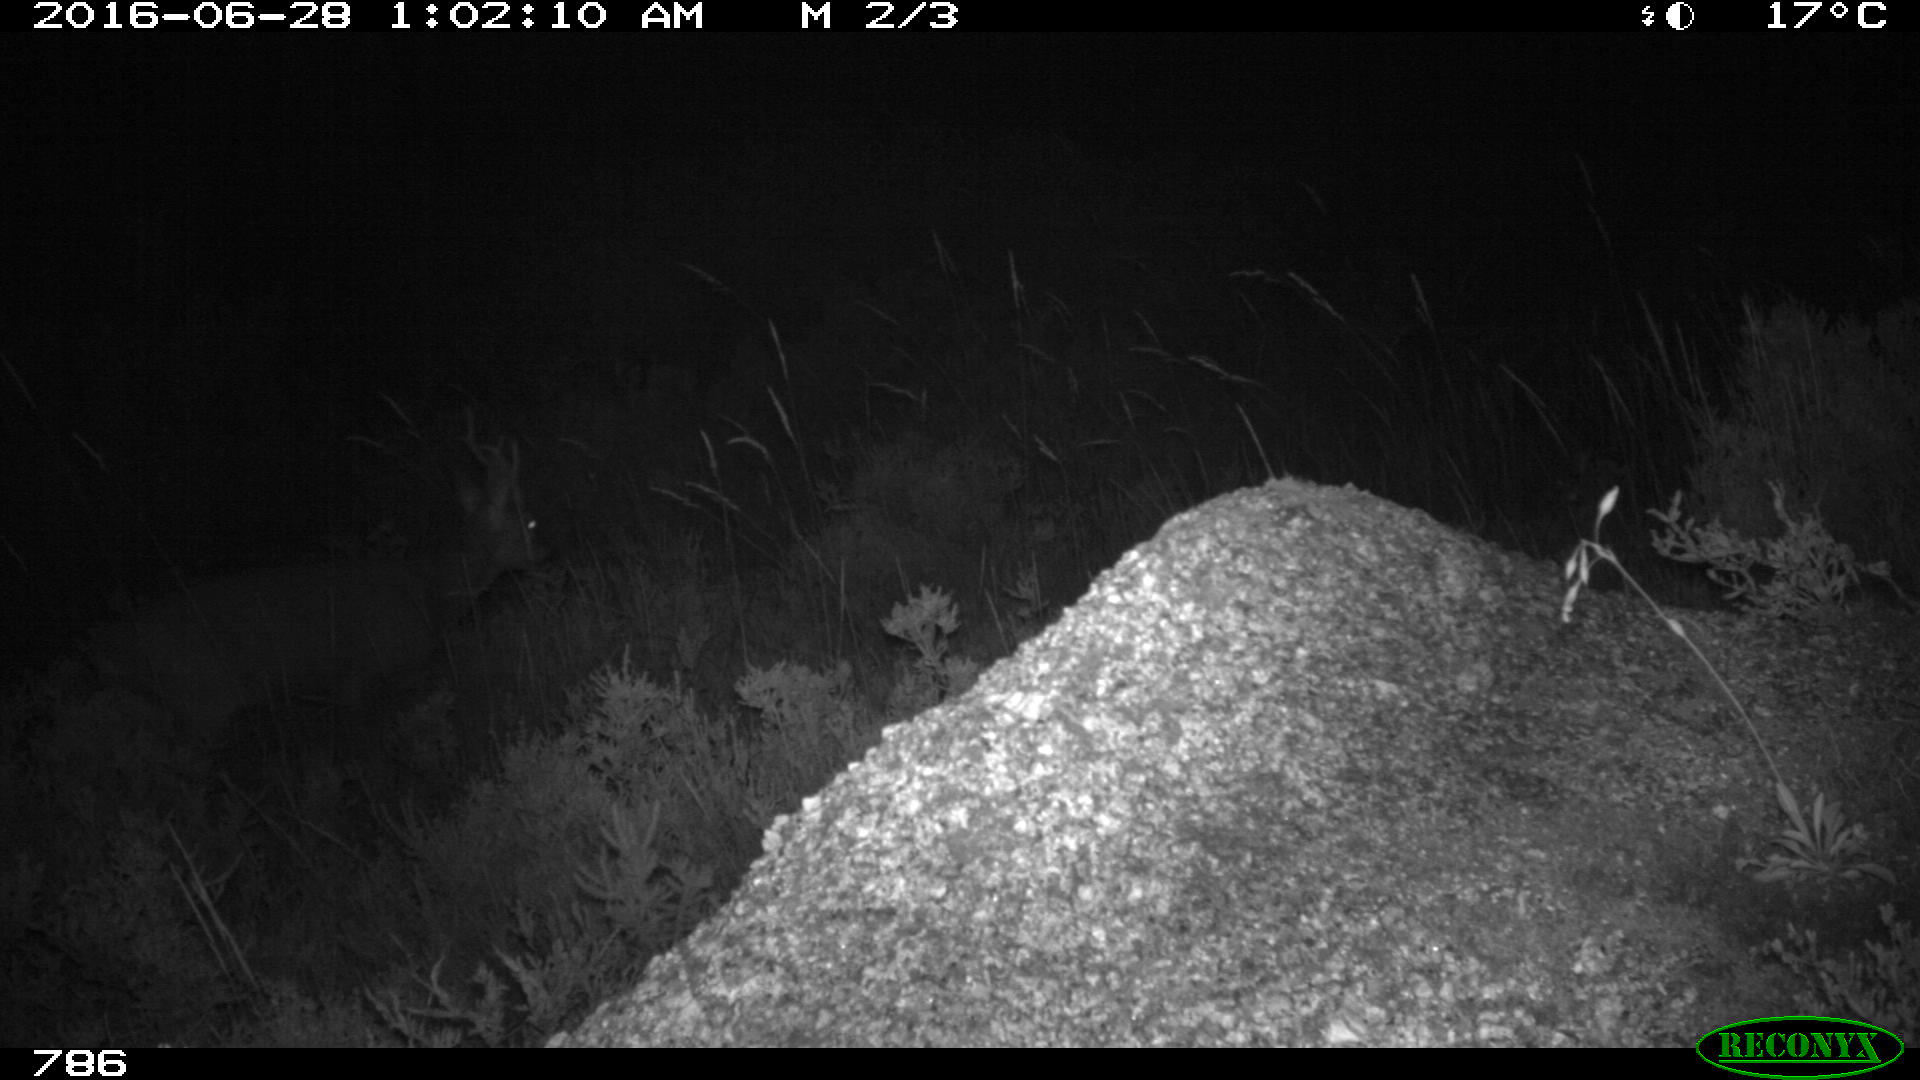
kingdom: Animalia
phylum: Chordata
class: Mammalia
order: Artiodactyla
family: Cervidae
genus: Capreolus
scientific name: Capreolus capreolus
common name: Western roe deer
